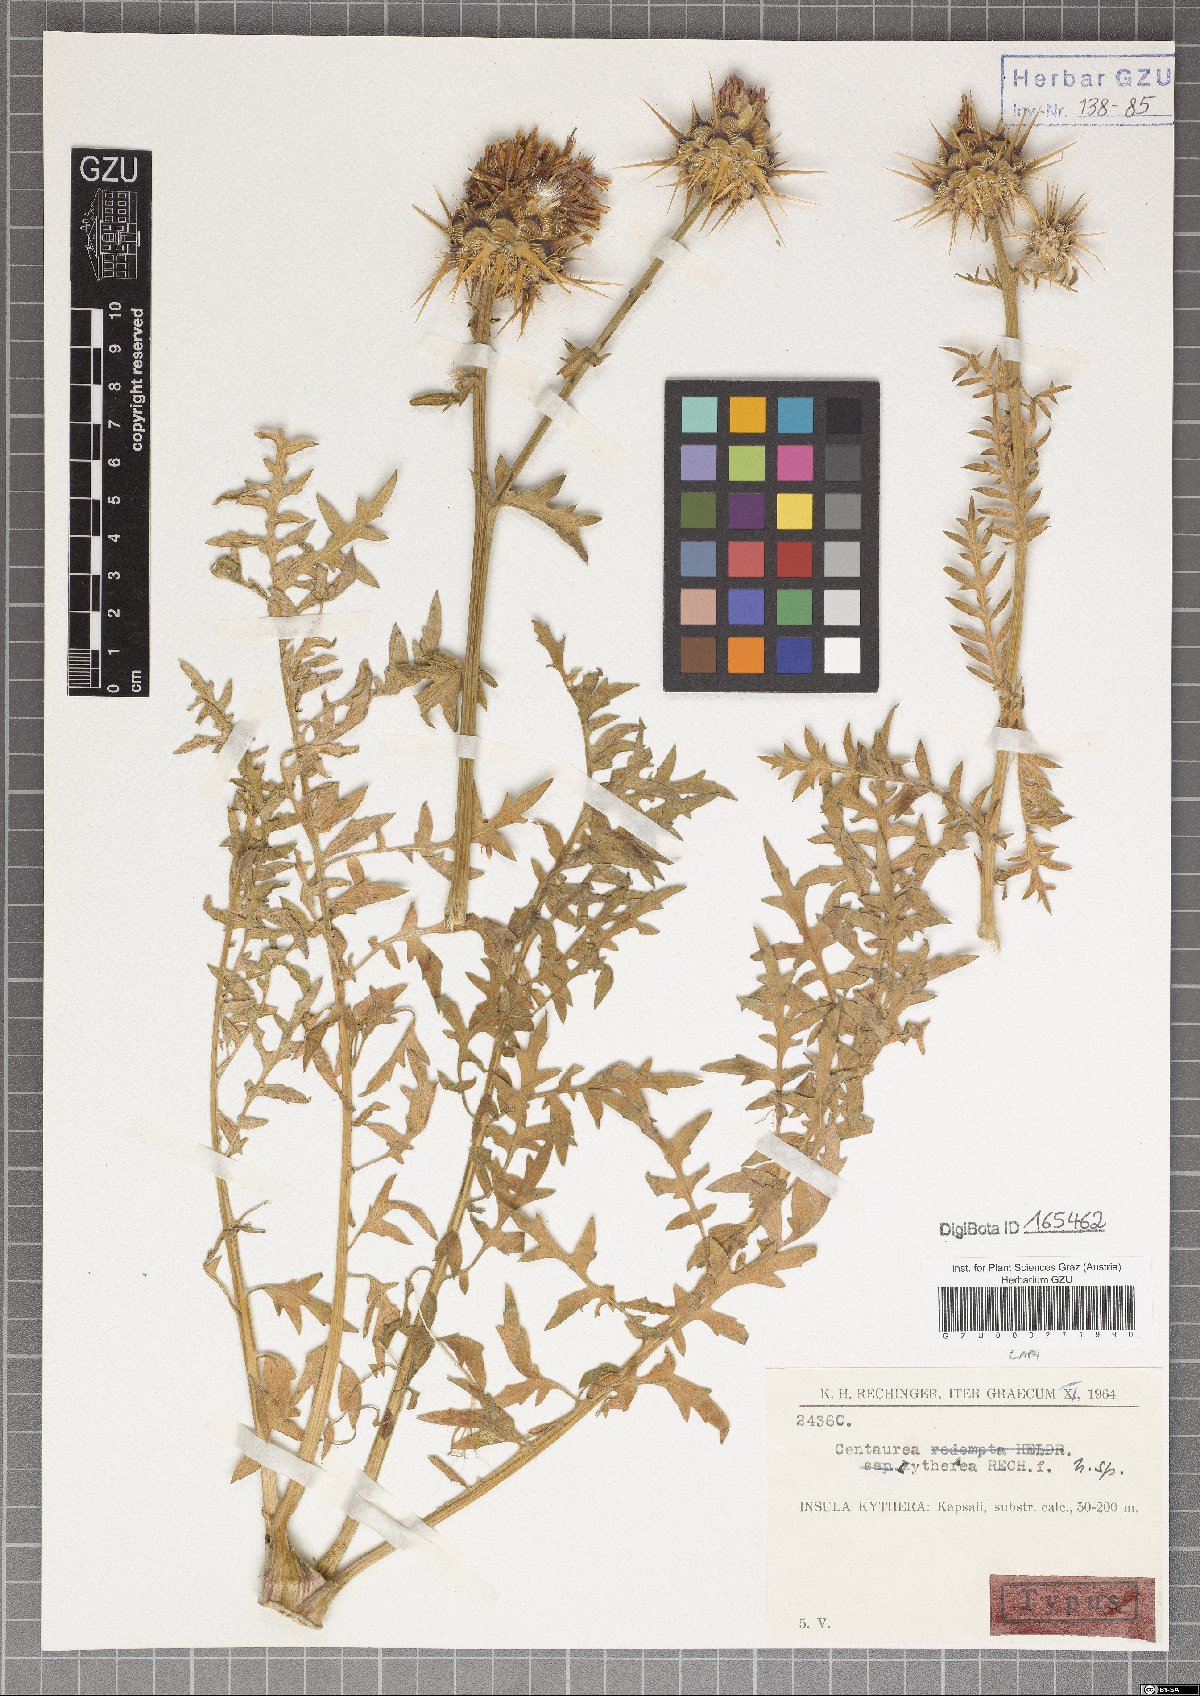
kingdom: Plantae
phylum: Tracheophyta
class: Magnoliopsida
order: Asterales
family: Asteraceae
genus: Centaurea
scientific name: Centaurea redempta
